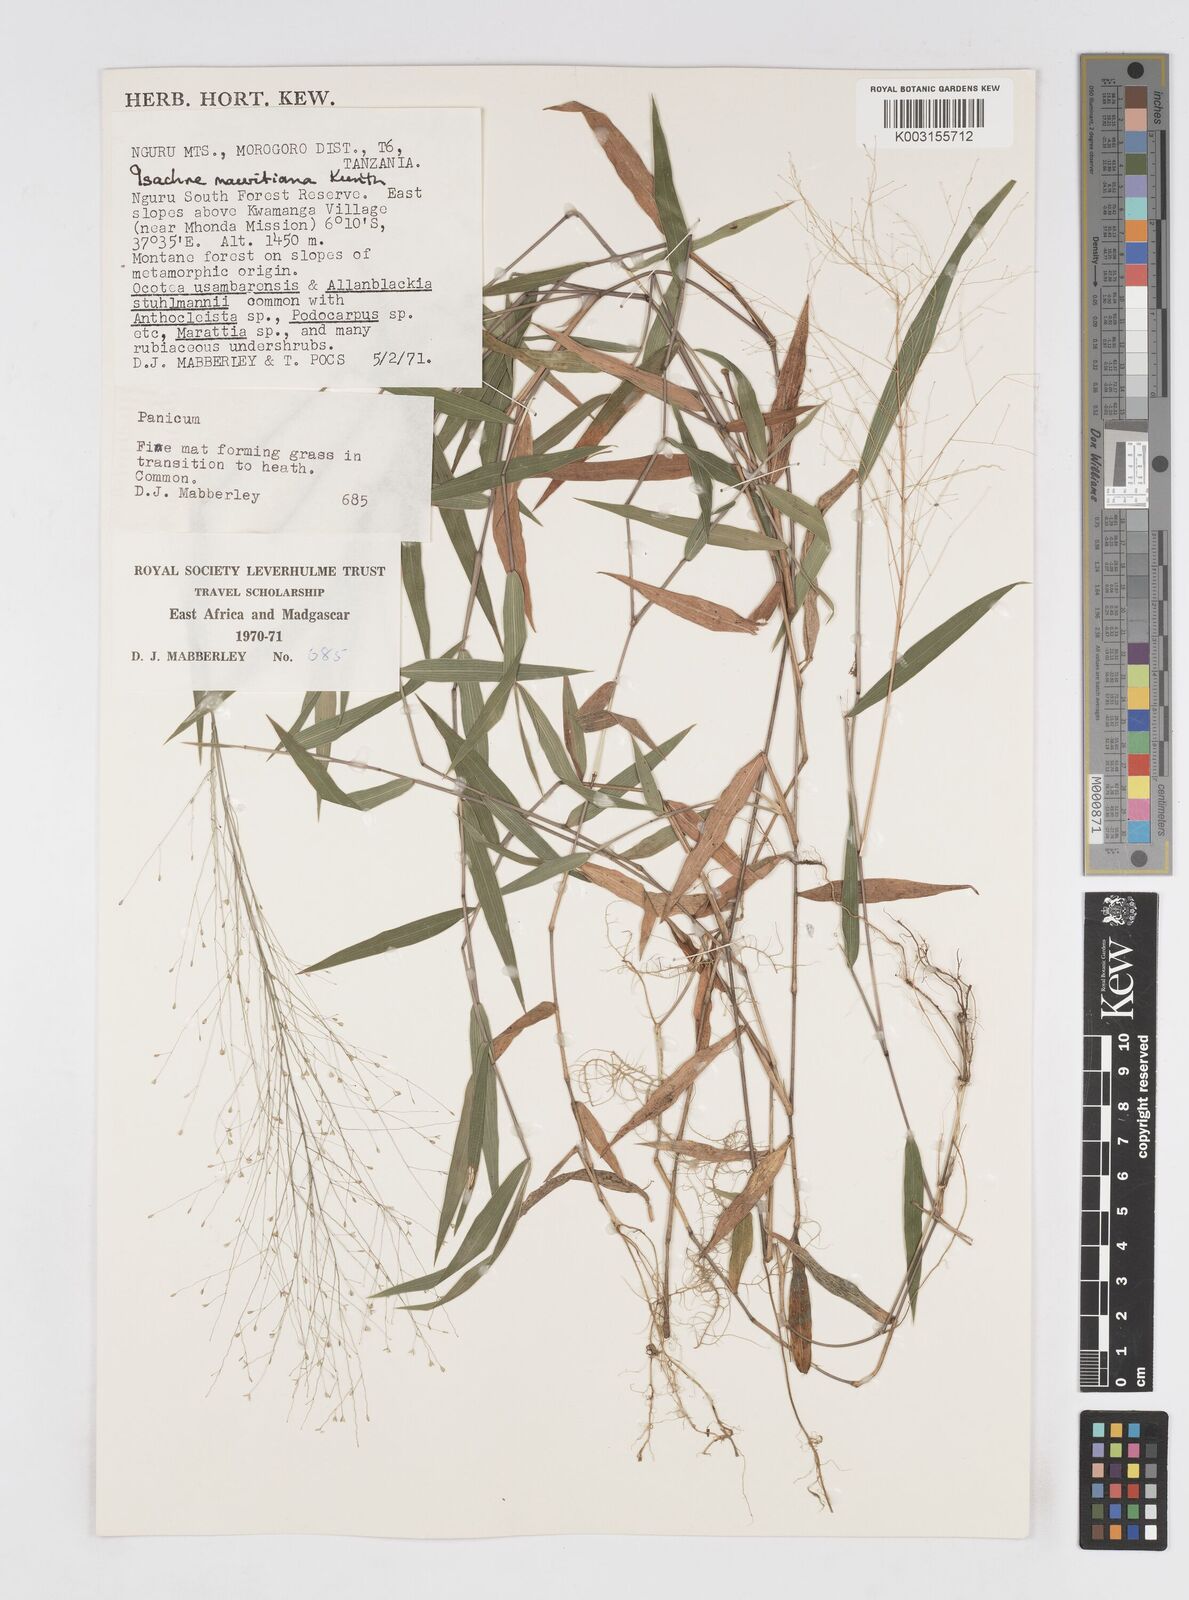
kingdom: Plantae
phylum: Tracheophyta
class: Liliopsida
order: Poales
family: Poaceae
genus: Isachne
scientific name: Isachne mauritiana
